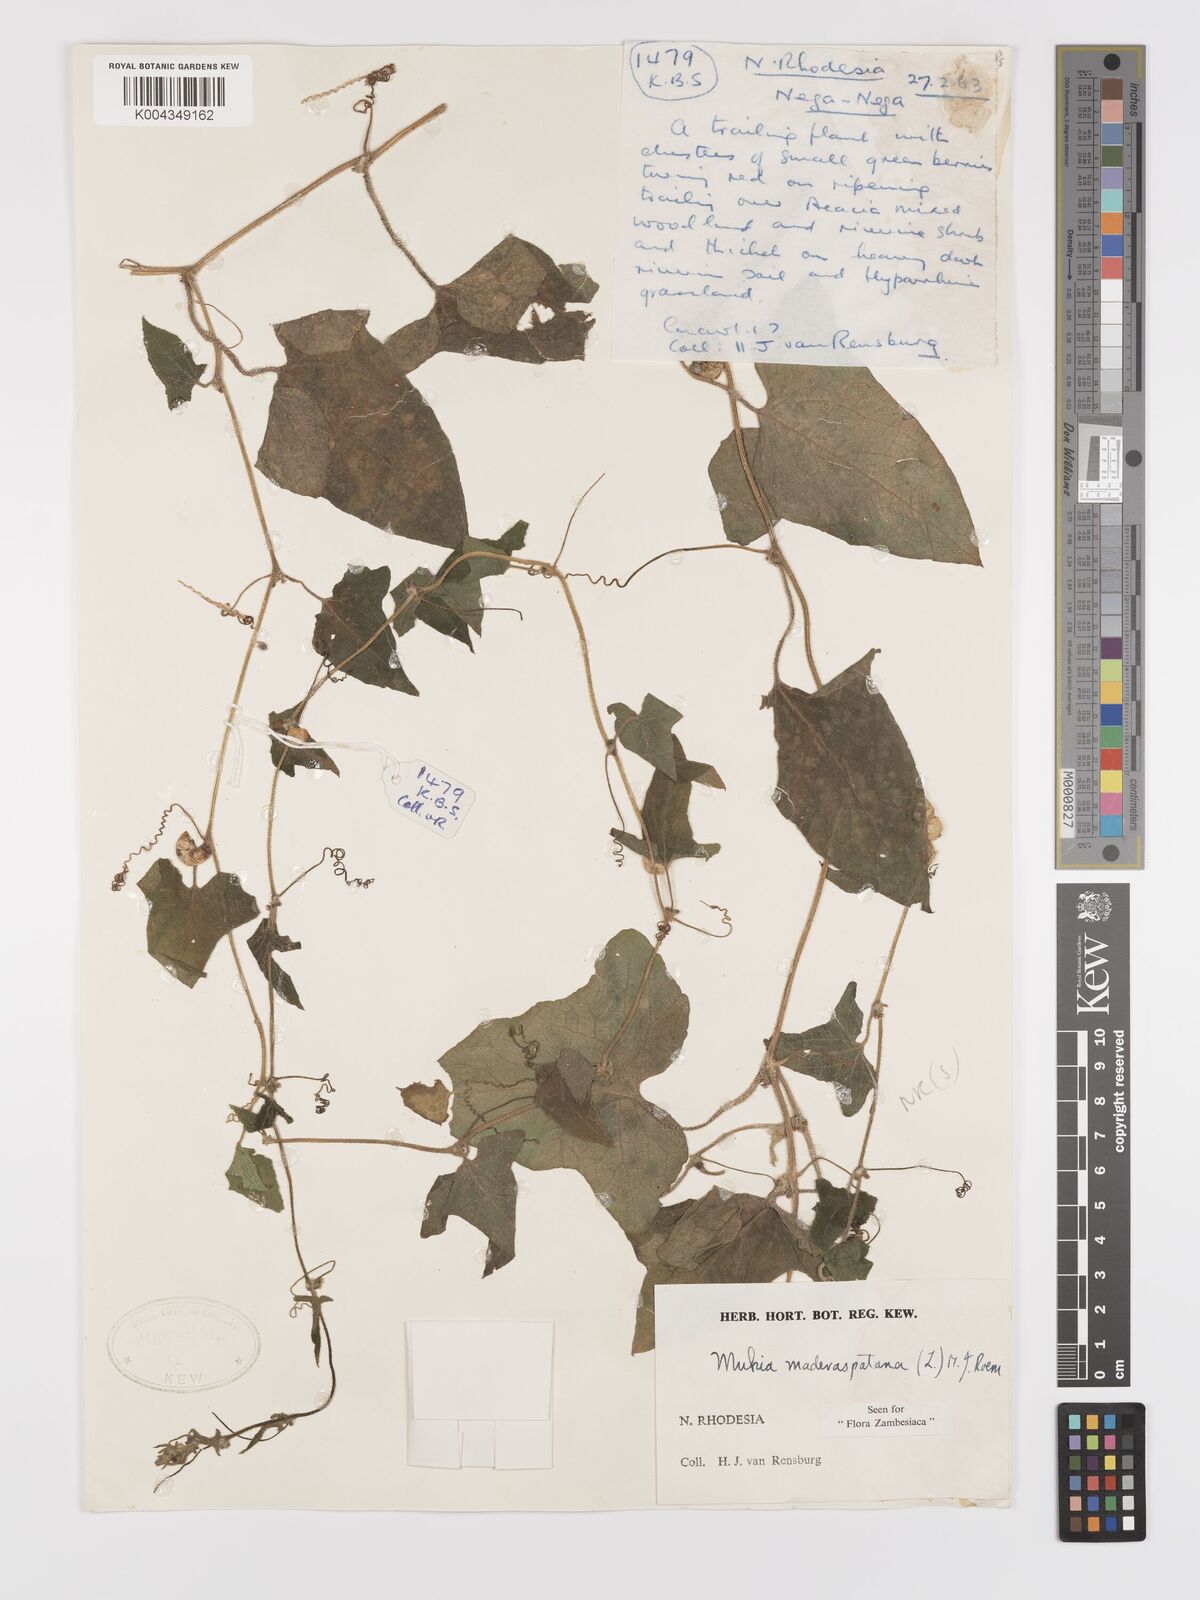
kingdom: Plantae
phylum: Tracheophyta
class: Magnoliopsida
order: Cucurbitales
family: Cucurbitaceae
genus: Cucumis
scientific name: Cucumis maderaspatanus
